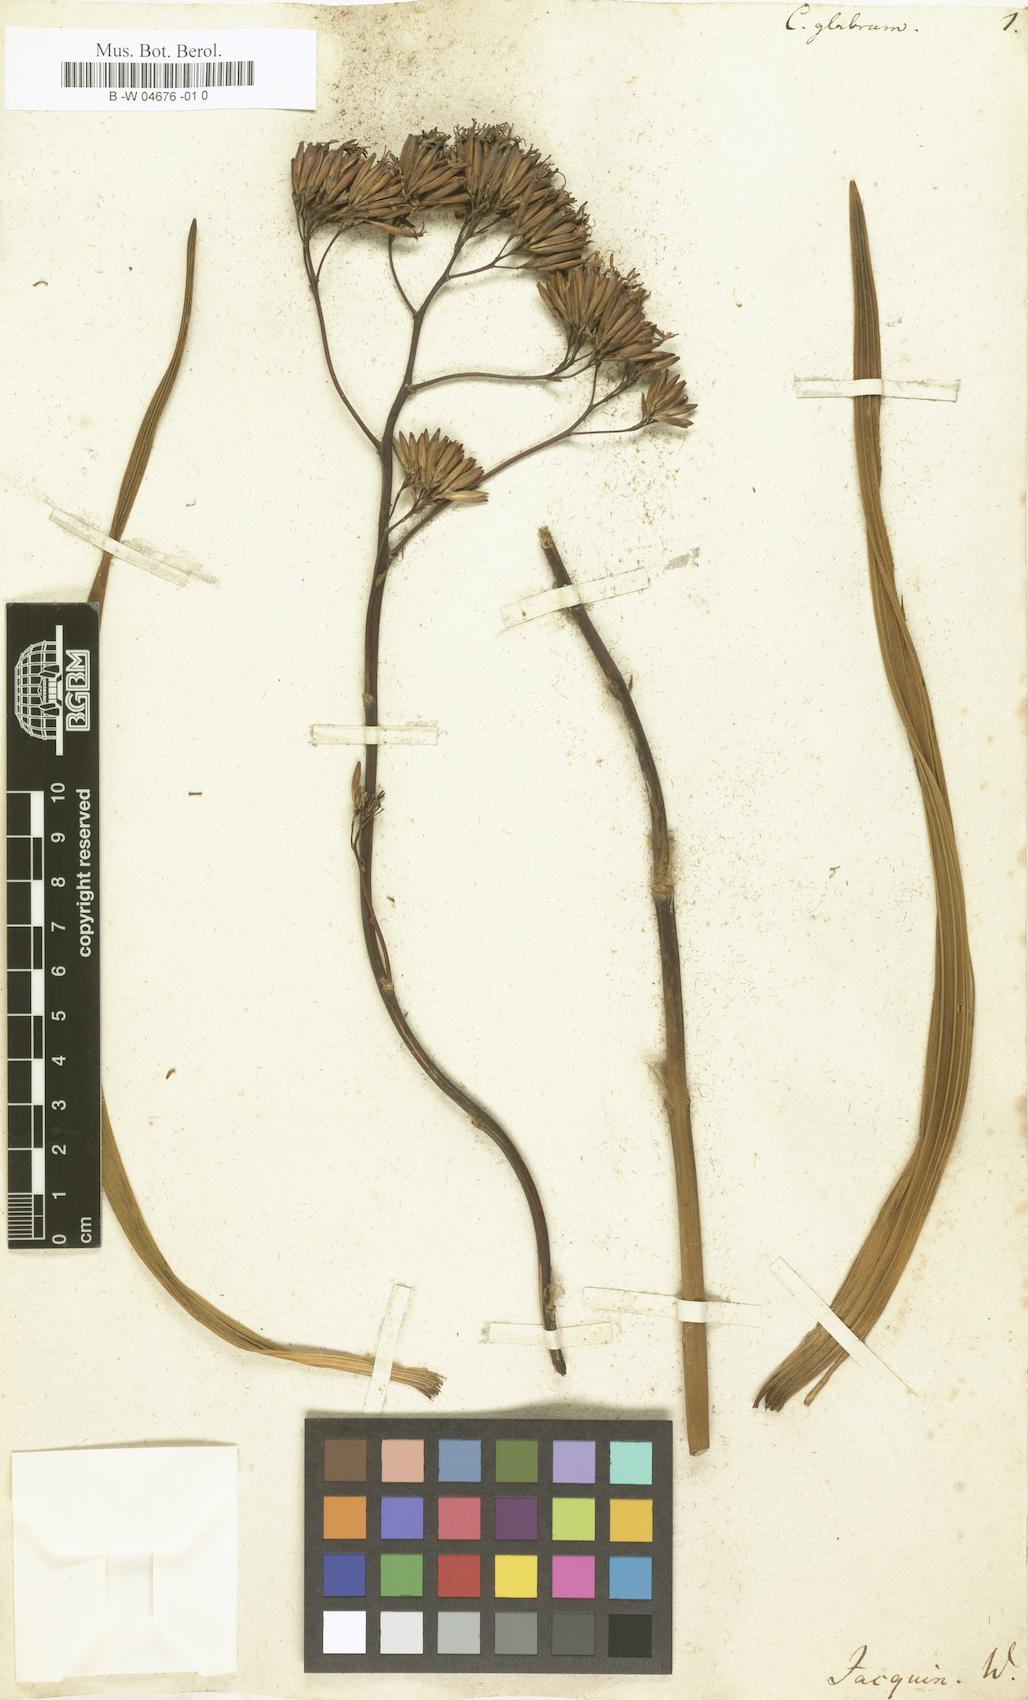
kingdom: Plantae
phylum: Tracheophyta
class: Magnoliopsida
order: Asterales
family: Asteraceae
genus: Corymbium
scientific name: Corymbium glabrum
